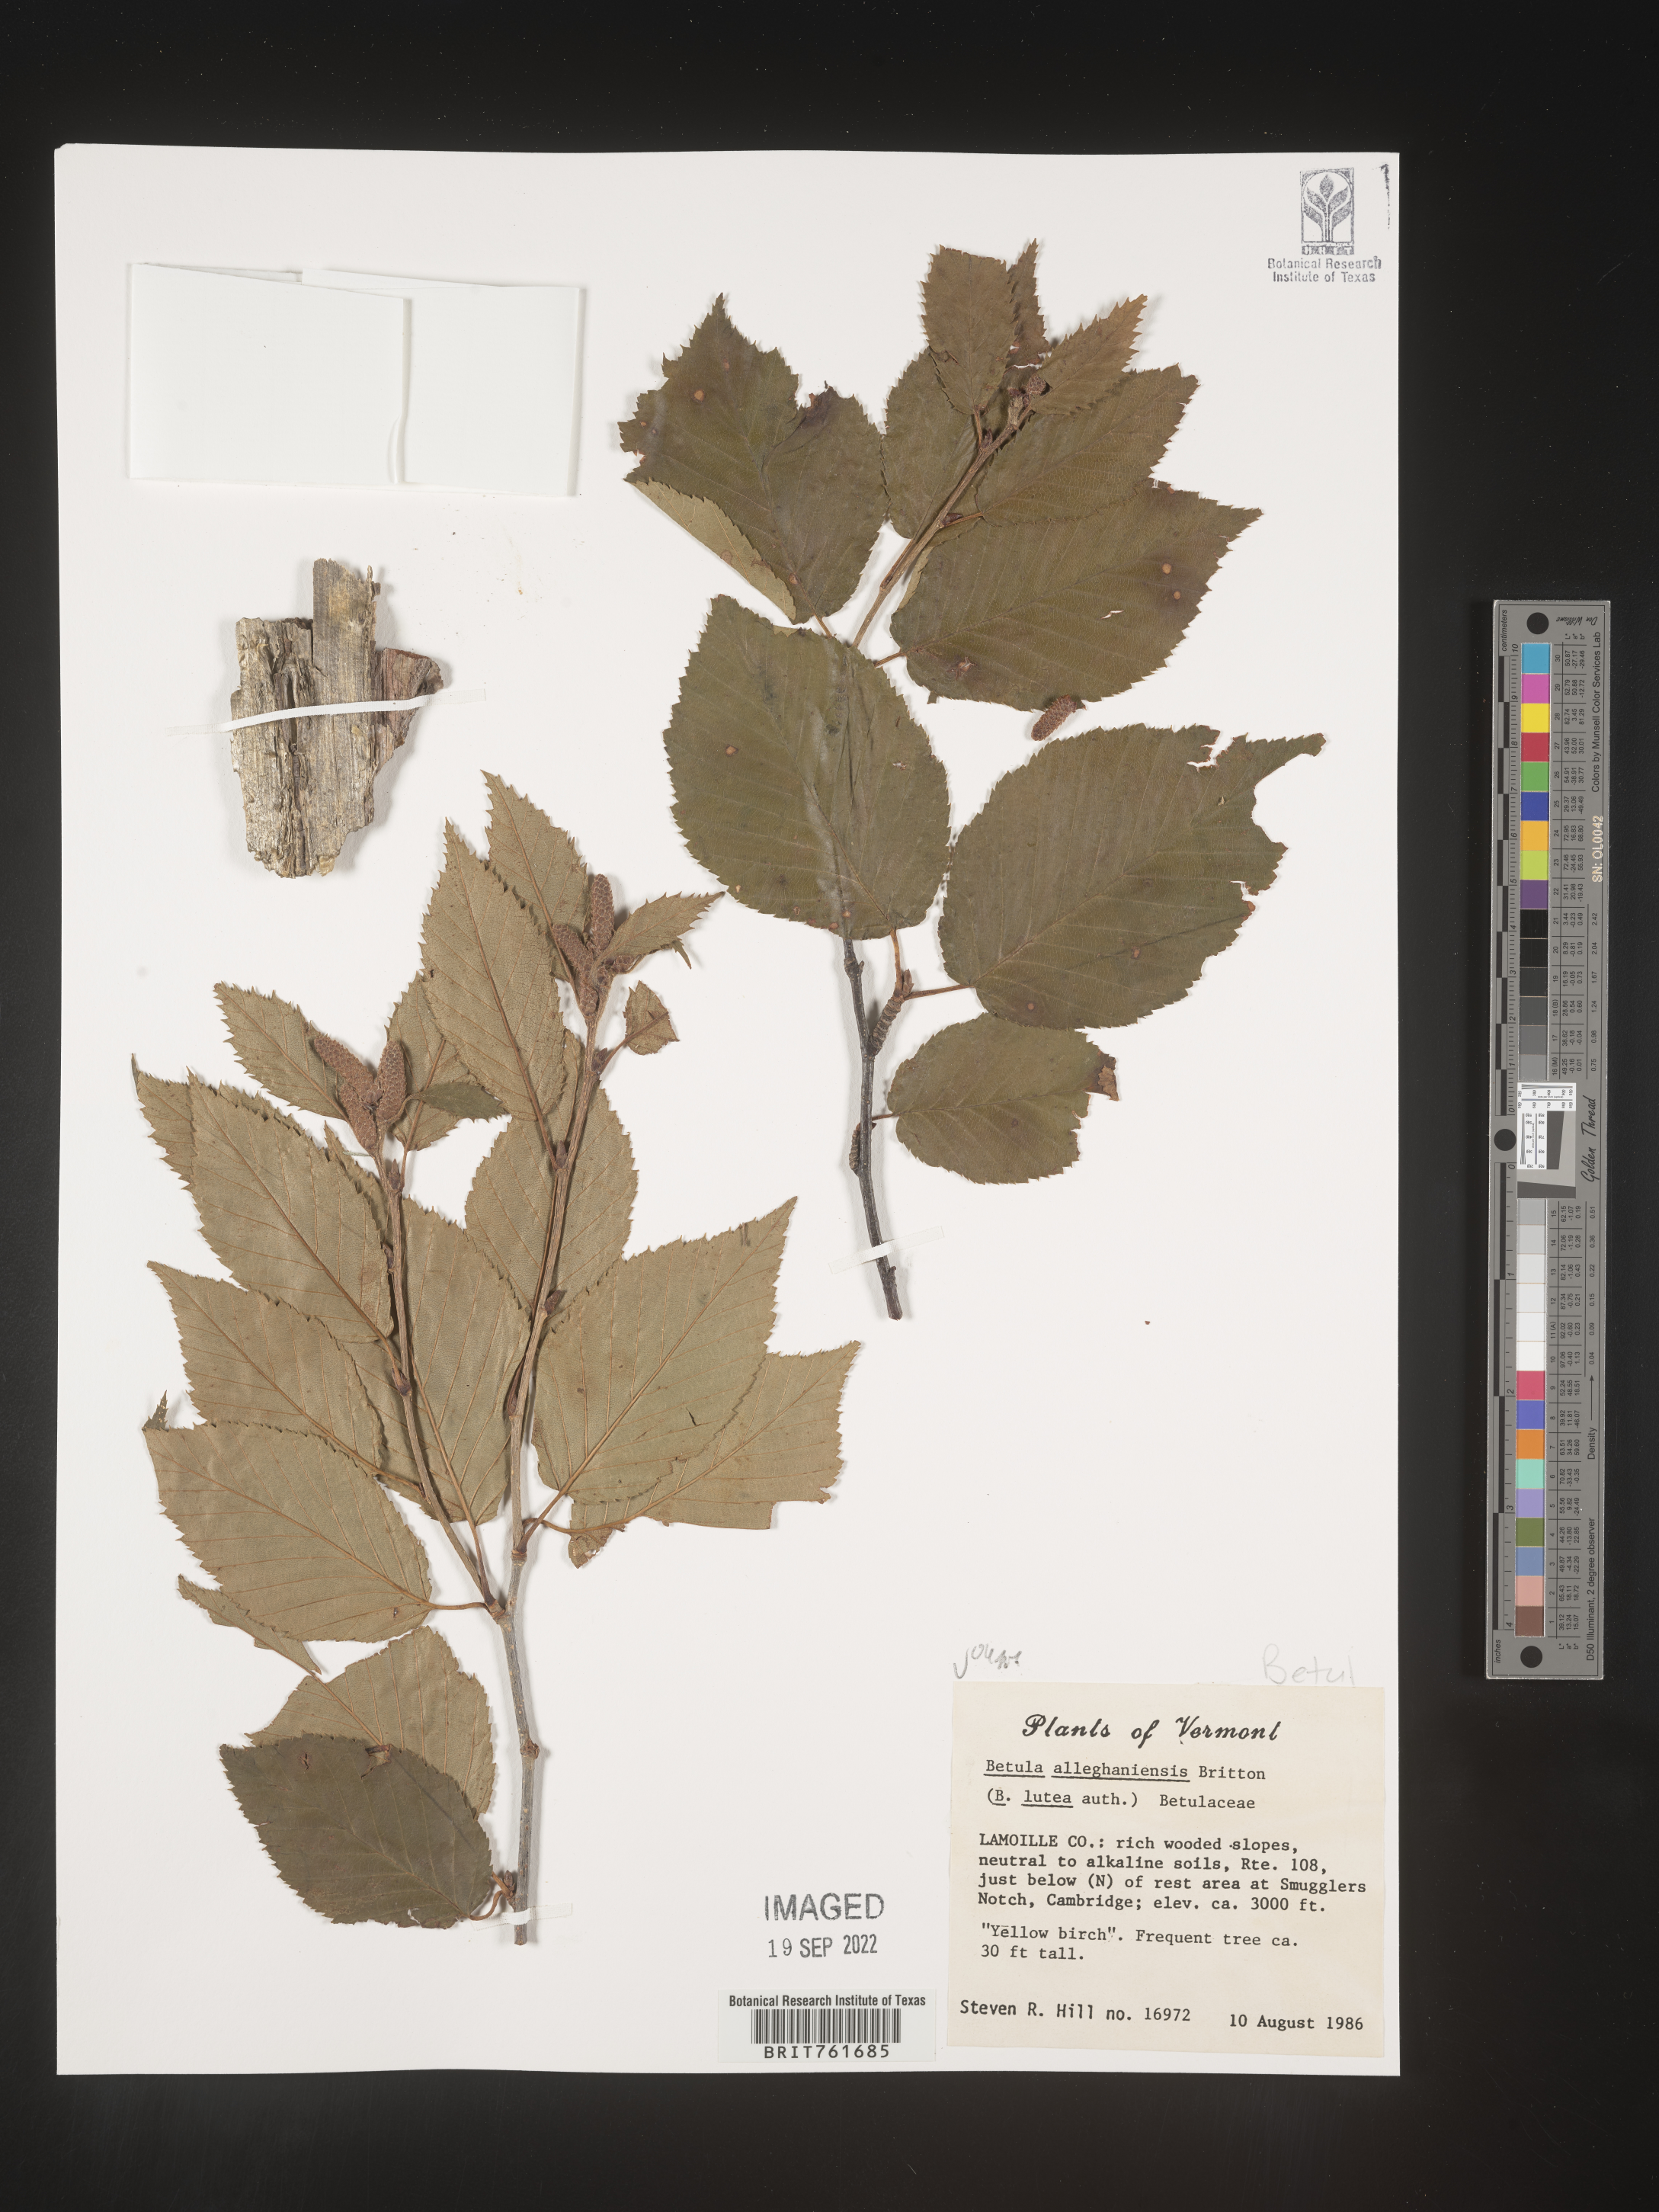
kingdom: Plantae
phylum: Tracheophyta
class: Magnoliopsida
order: Fagales
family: Betulaceae
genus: Betula
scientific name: Betula alleghaniensis
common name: Yellow birch
